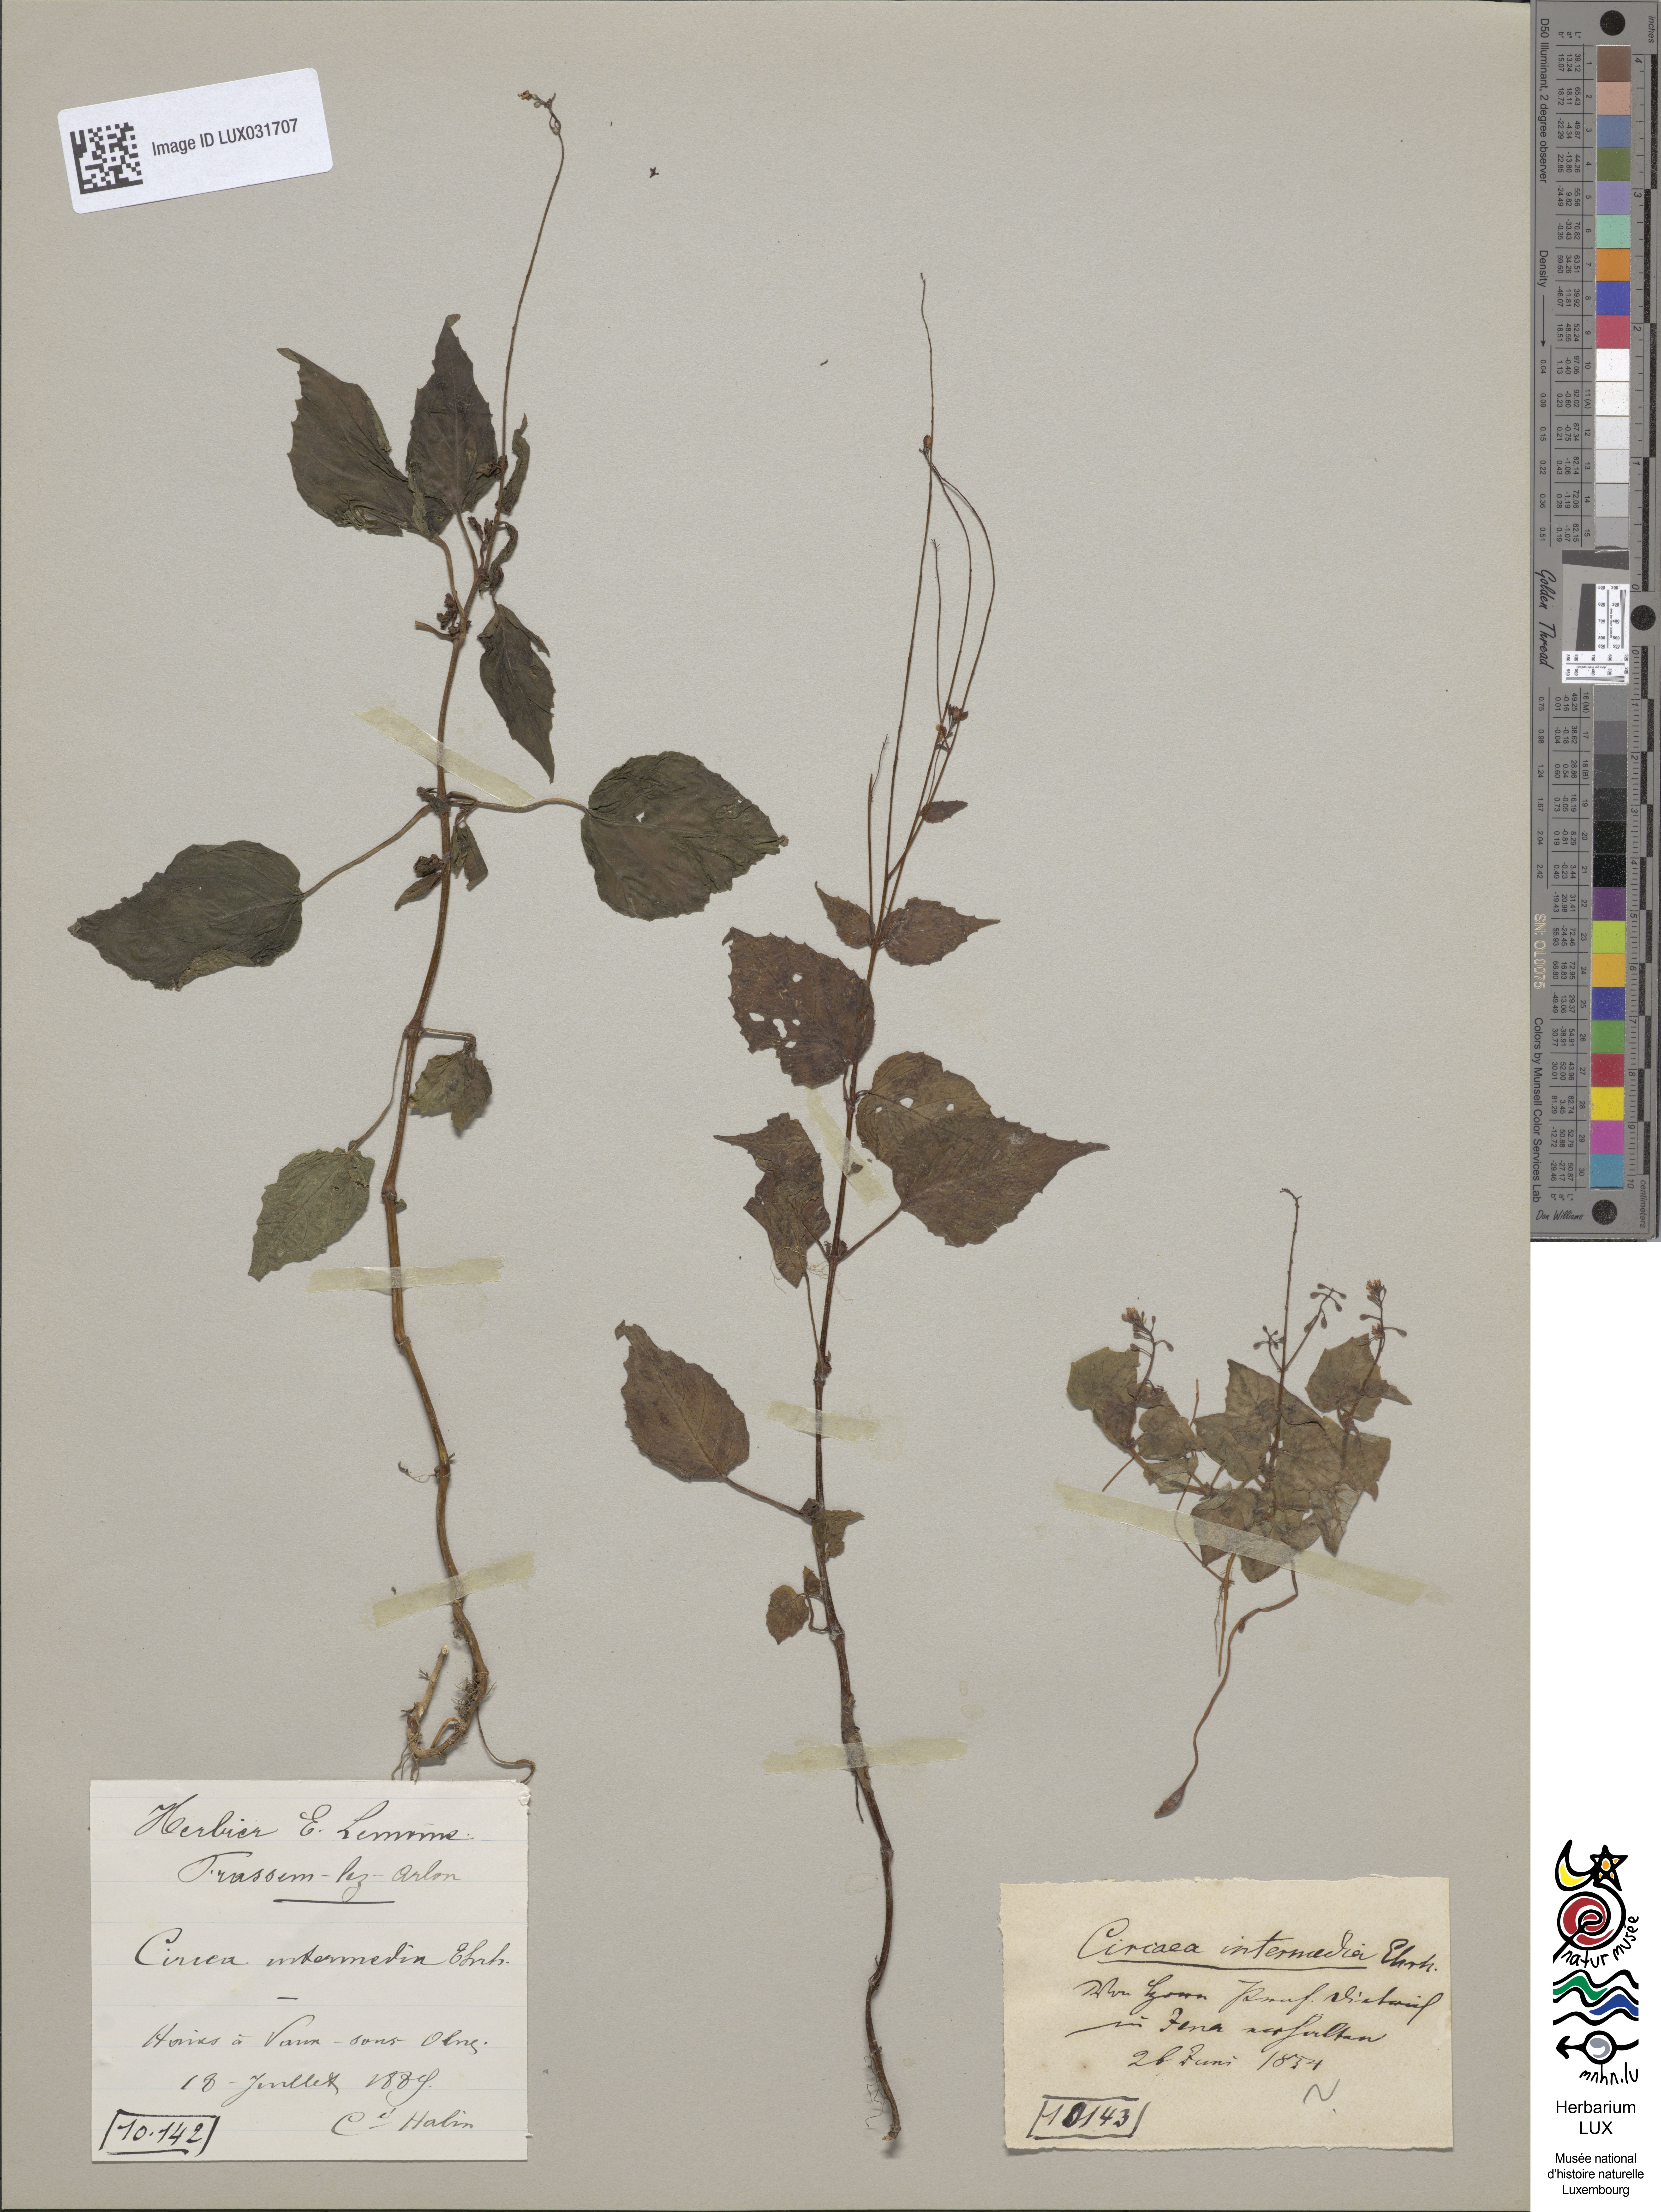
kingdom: Plantae
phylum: Tracheophyta
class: Magnoliopsida
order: Myrtales
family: Onagraceae
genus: Circaea
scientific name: Circaea intermedia
